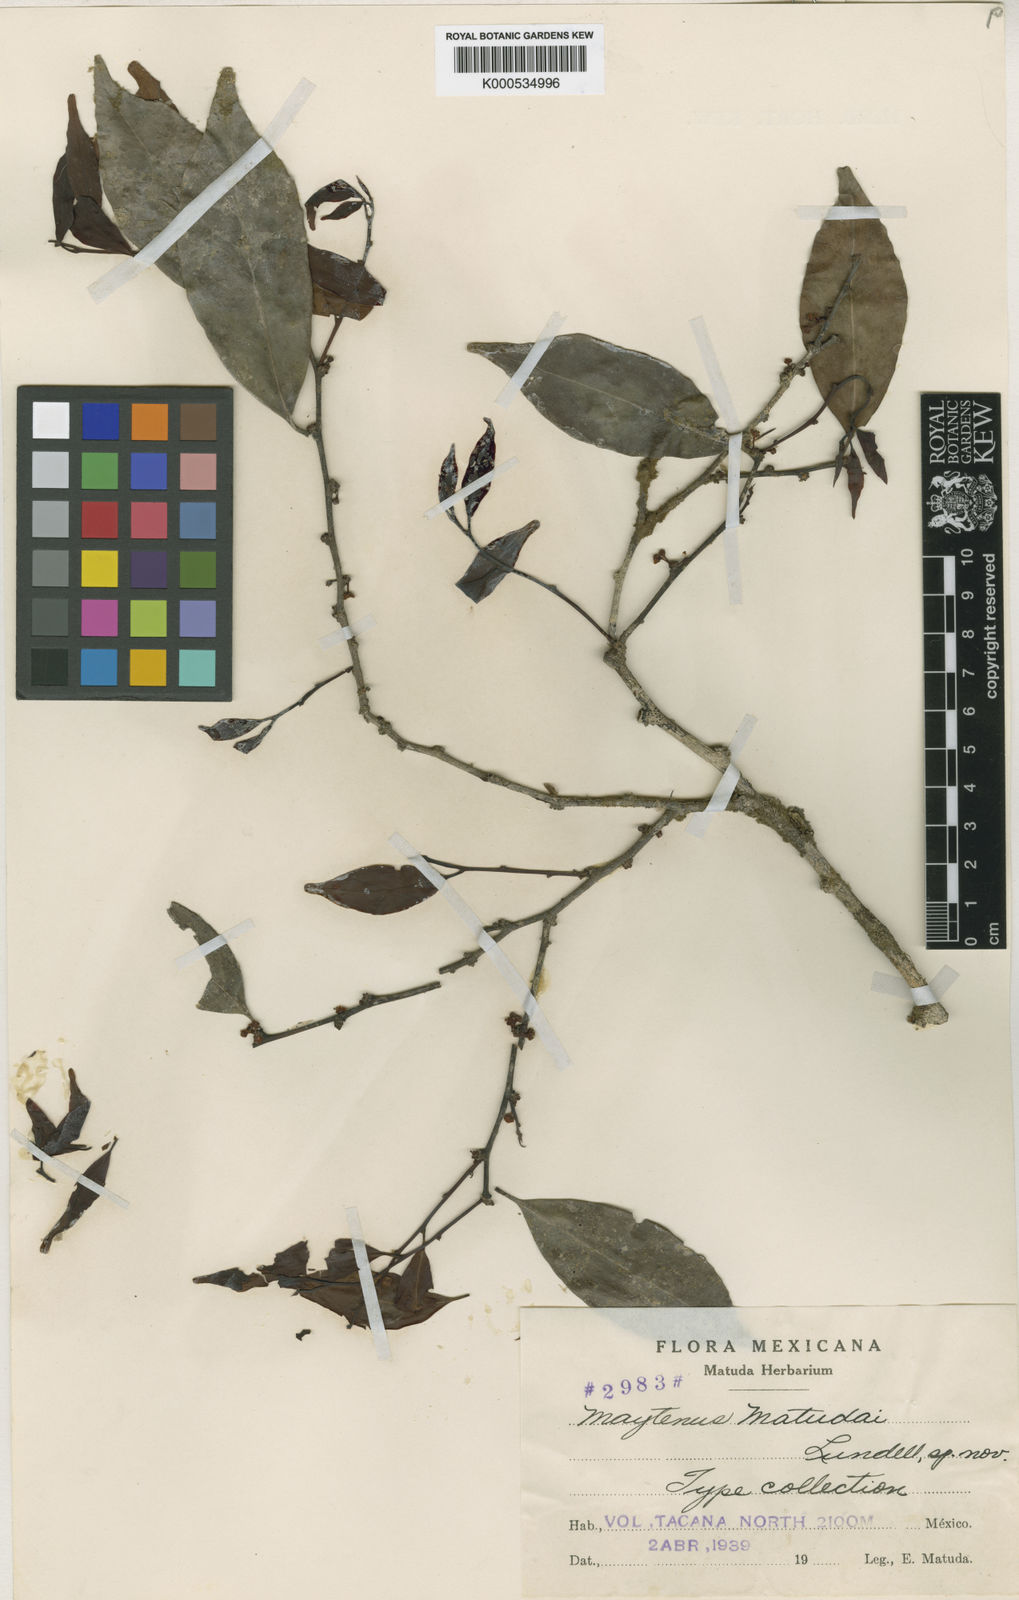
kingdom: Plantae
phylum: Tracheophyta
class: Magnoliopsida
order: Celastrales
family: Celastraceae
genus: Monteverdia
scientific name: Monteverdia matudae
